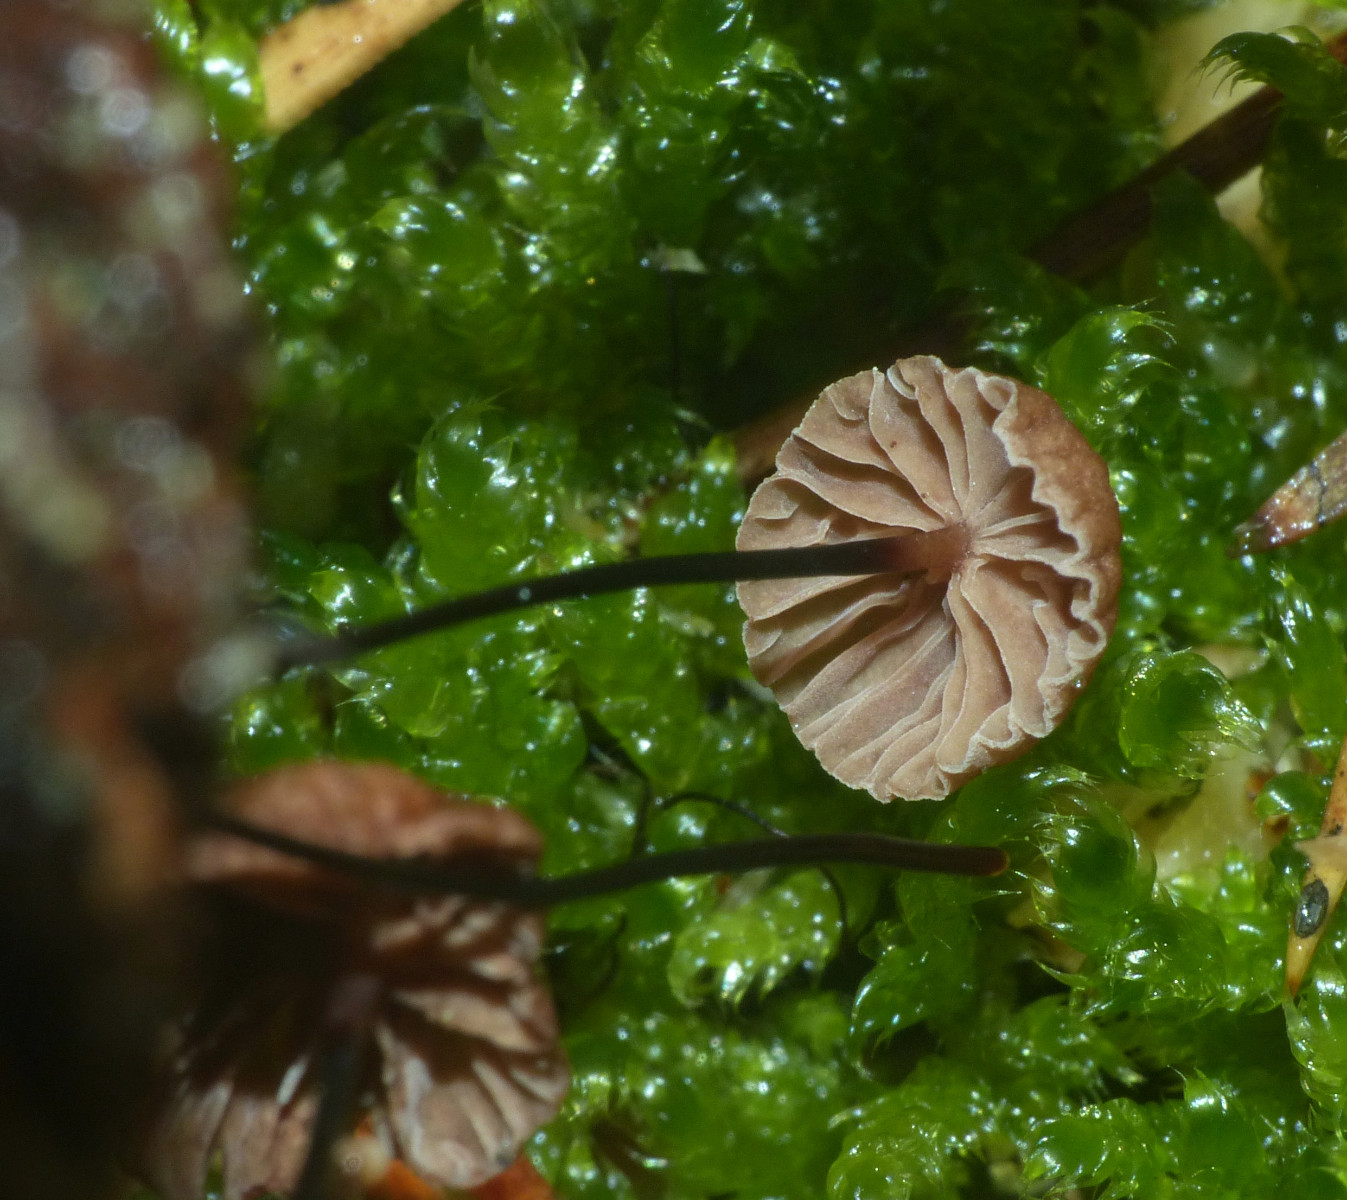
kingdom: Fungi
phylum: Basidiomycota
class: Agaricomycetes
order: Agaricales
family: Omphalotaceae
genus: Gymnopus
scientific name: Gymnopus androsaceus
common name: trådstokket fladhat
